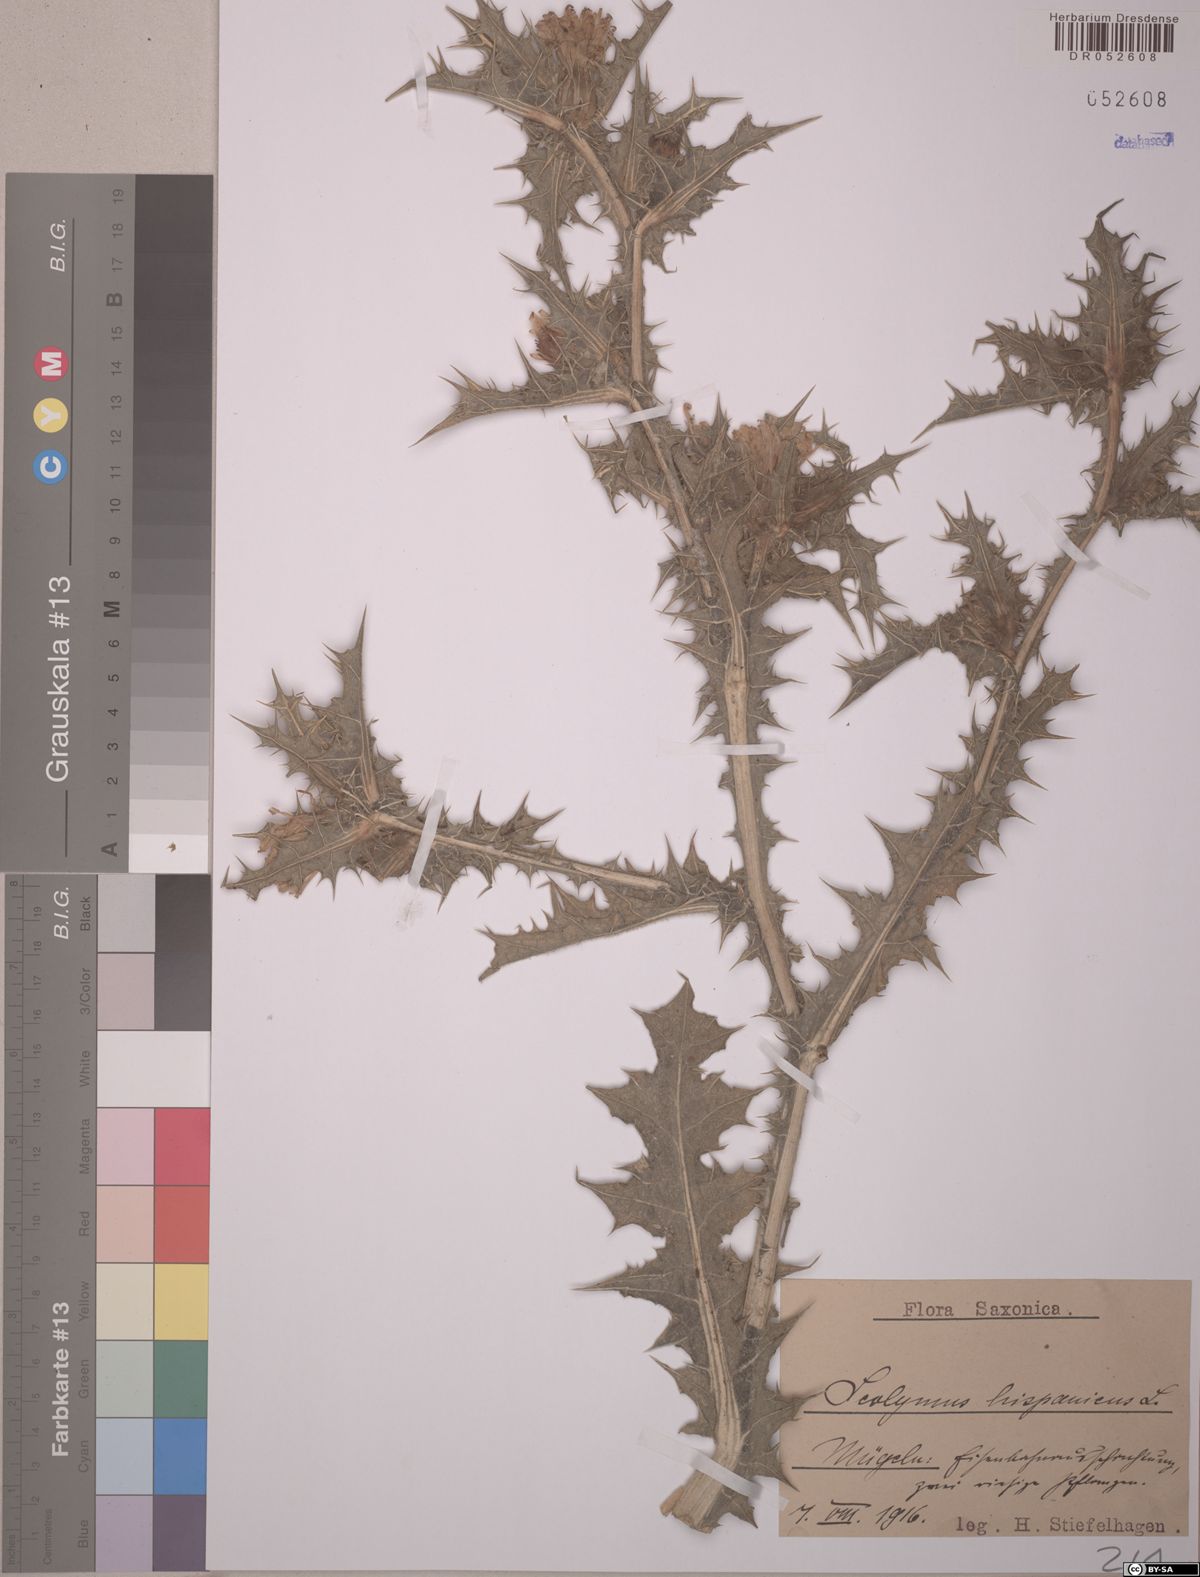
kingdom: Plantae
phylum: Tracheophyta
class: Magnoliopsida
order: Asterales
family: Asteraceae
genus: Scolymus
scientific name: Scolymus hispanicus
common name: Golden thistle
